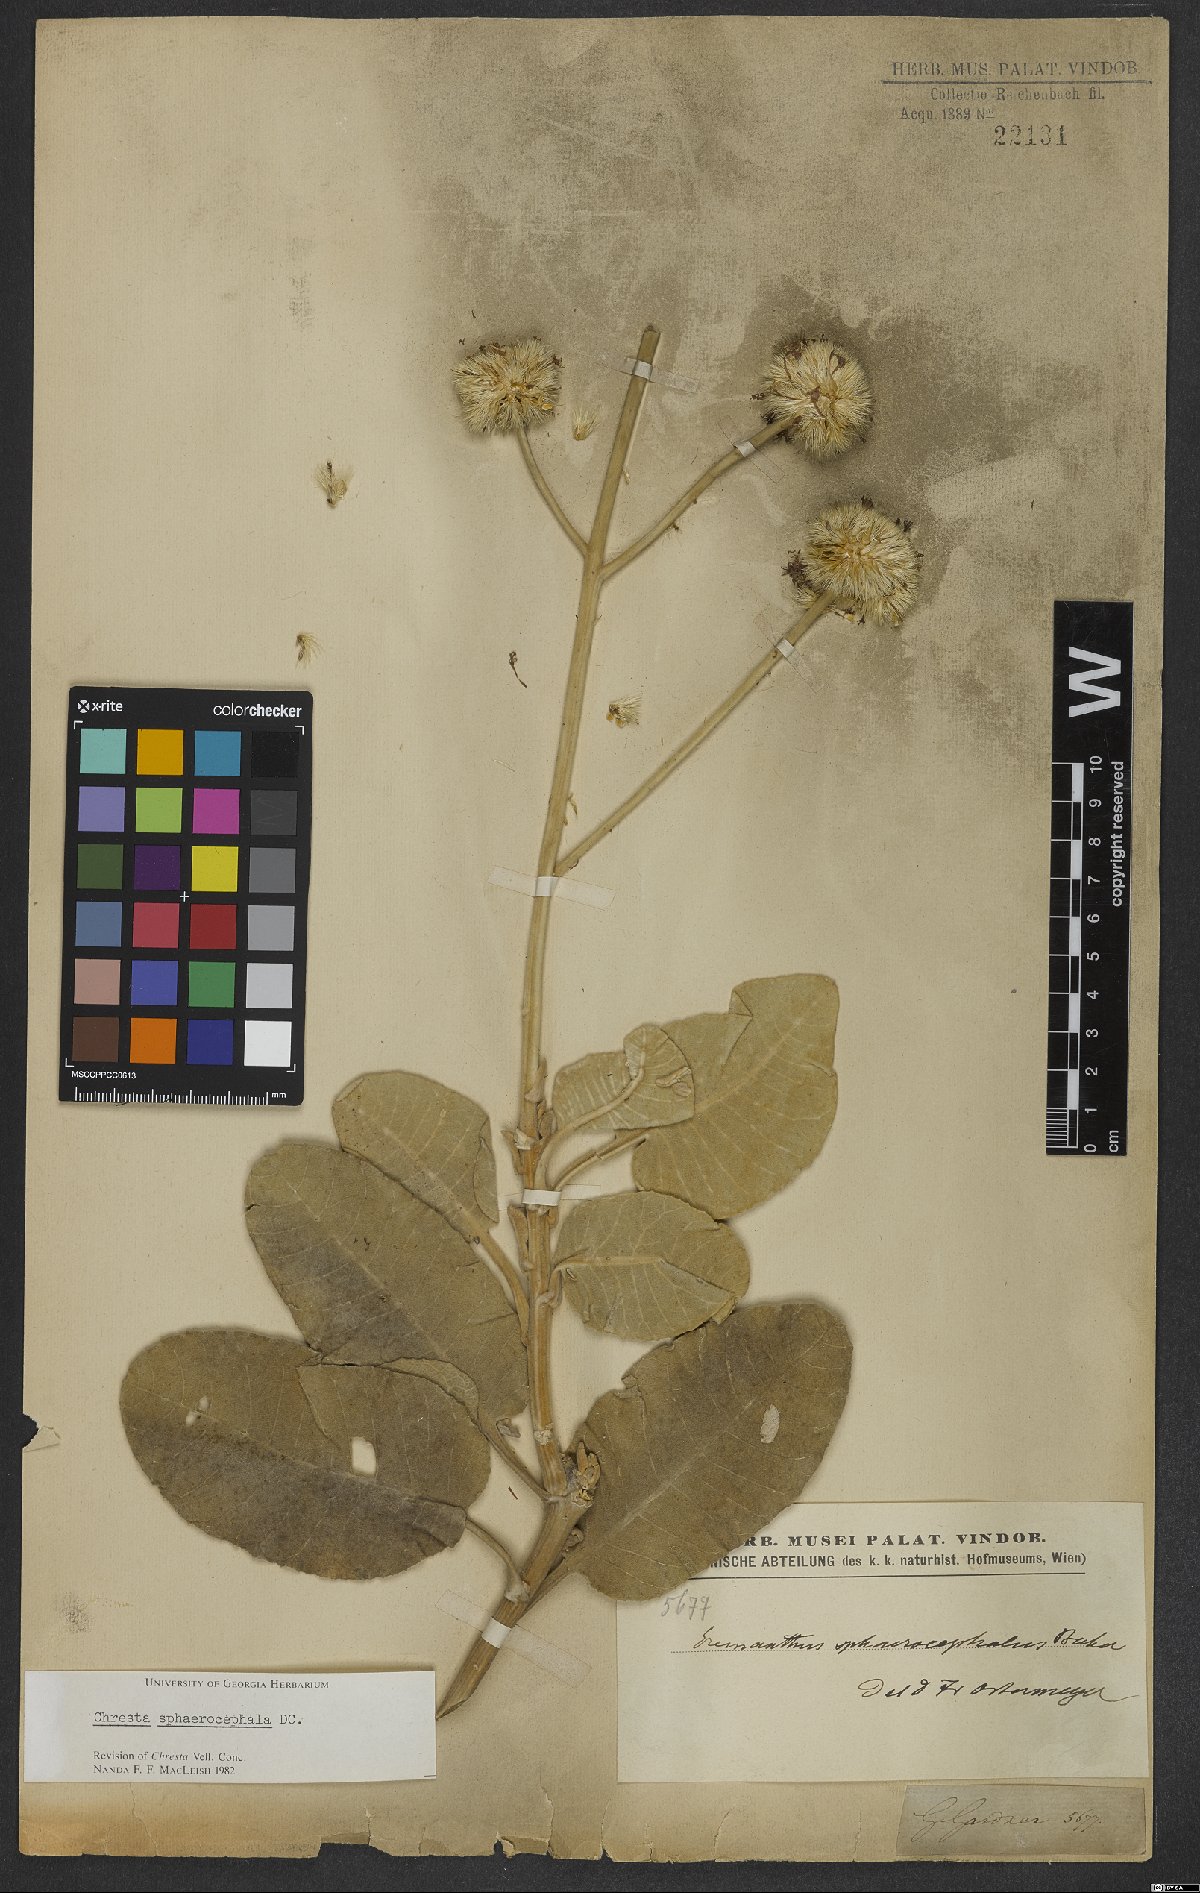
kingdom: Plantae
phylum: Tracheophyta
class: Magnoliopsida
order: Asterales
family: Asteraceae
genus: Chresta
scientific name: Chresta sphaerocephala
